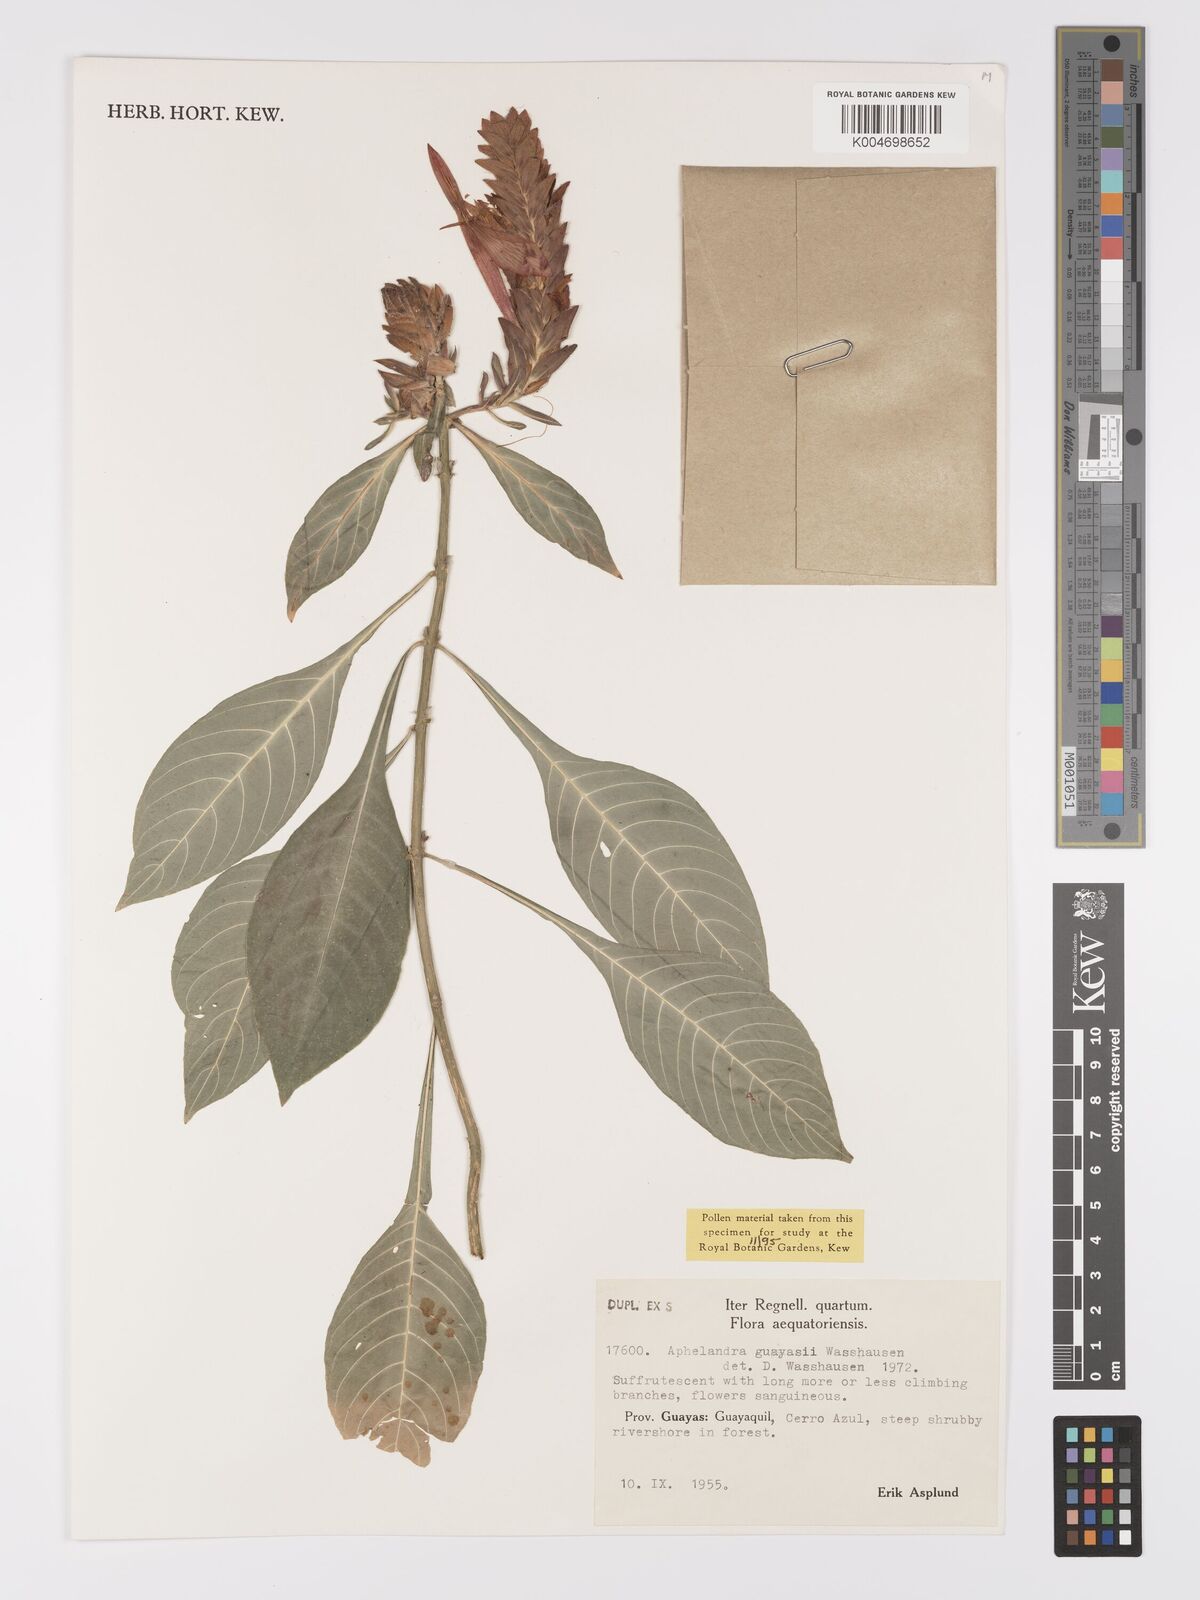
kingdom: Plantae
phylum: Tracheophyta
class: Magnoliopsida
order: Lamiales
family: Acanthaceae
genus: Aphelandra
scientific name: Aphelandra guayasii
